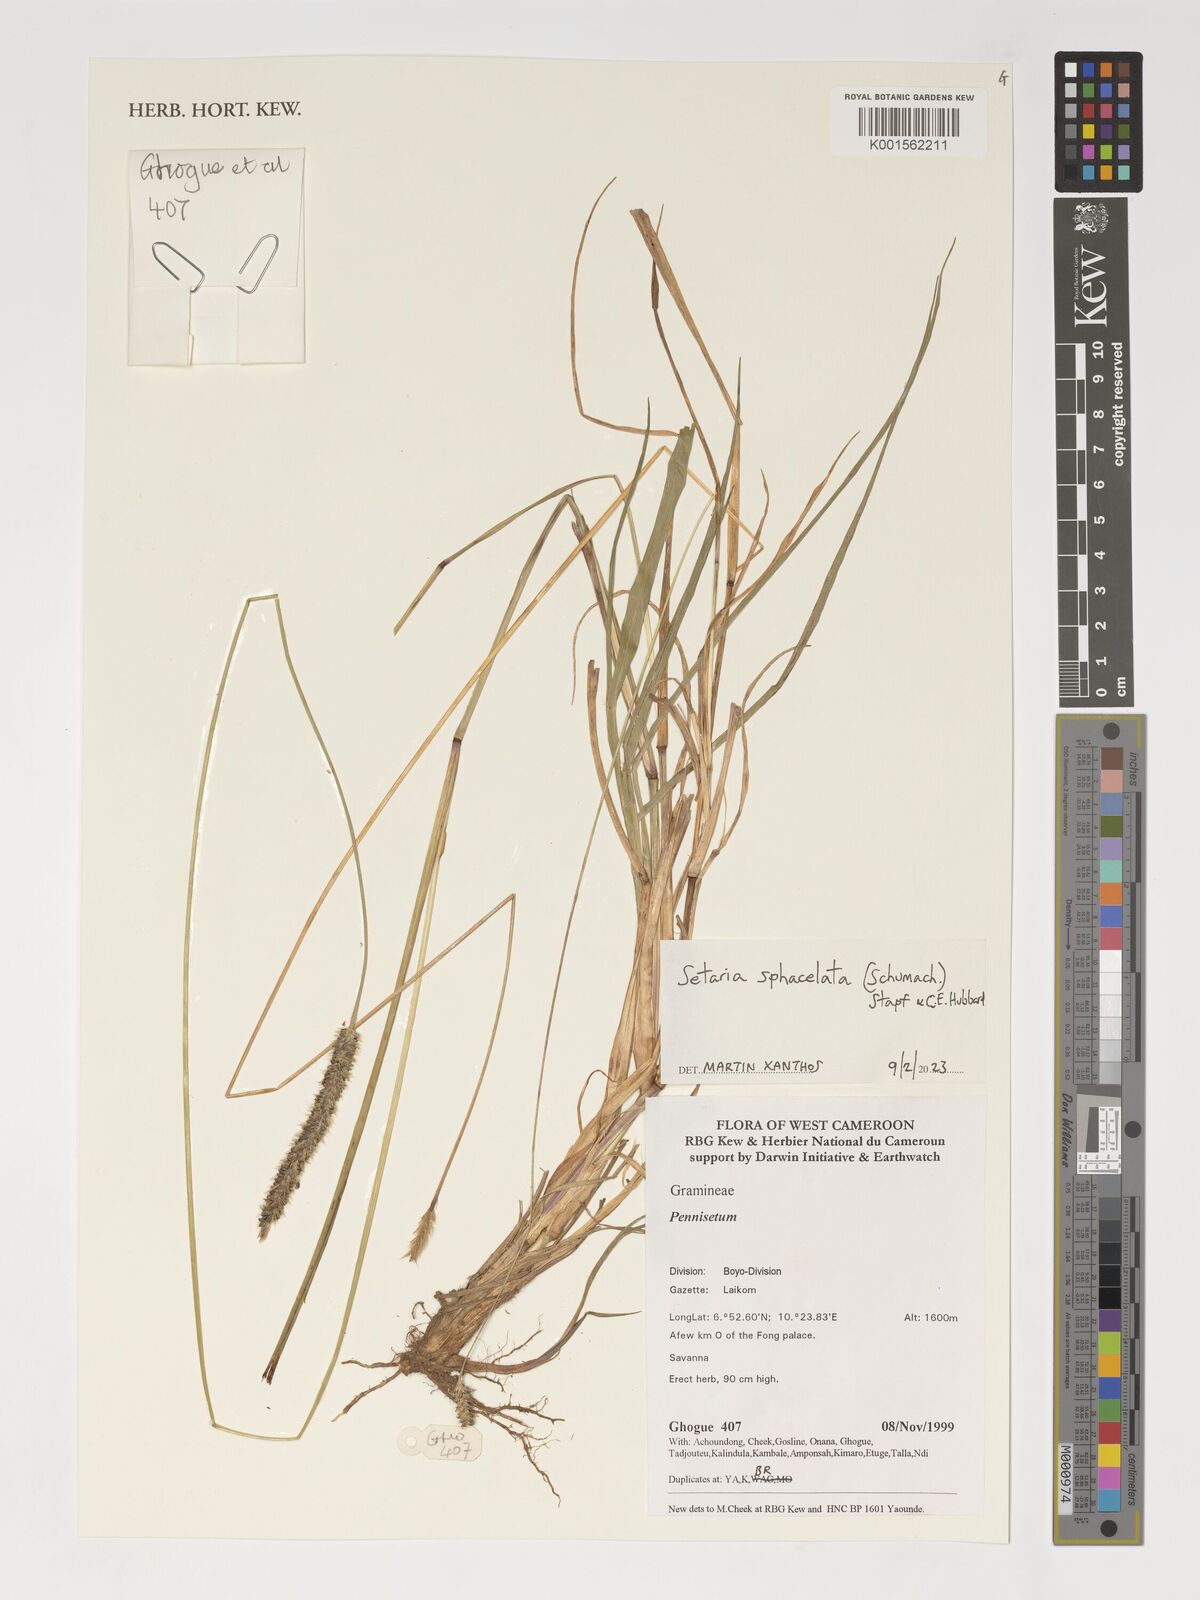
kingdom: Plantae
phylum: Tracheophyta
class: Liliopsida
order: Poales
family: Poaceae
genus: Setaria
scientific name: Setaria sphacelata
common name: African bristlegrass
